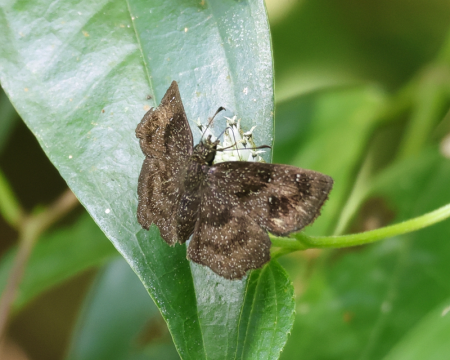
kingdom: Animalia
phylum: Arthropoda
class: Insecta
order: Lepidoptera
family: Hesperiidae
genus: Staphylus
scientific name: Staphylus ascalaphus
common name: Central American Sootywing
